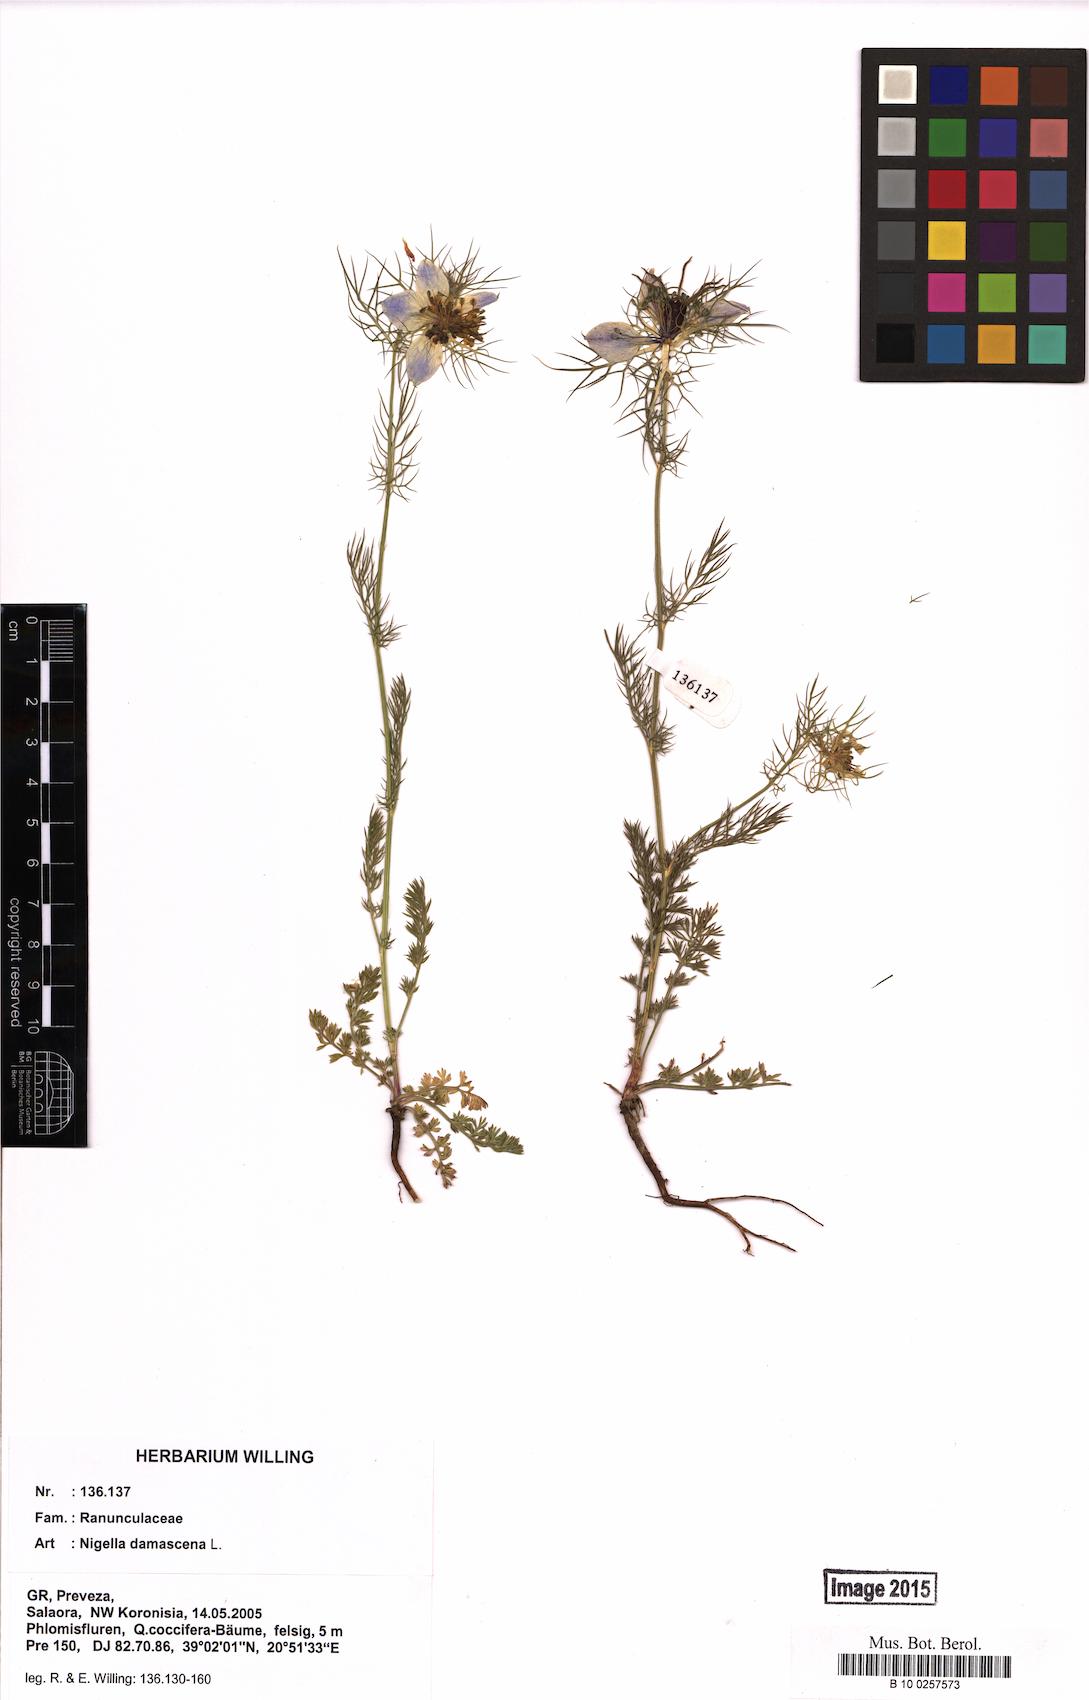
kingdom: Plantae
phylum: Tracheophyta
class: Magnoliopsida
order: Ranunculales
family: Ranunculaceae
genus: Nigella
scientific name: Nigella damascena
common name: Love-in-a-mist
